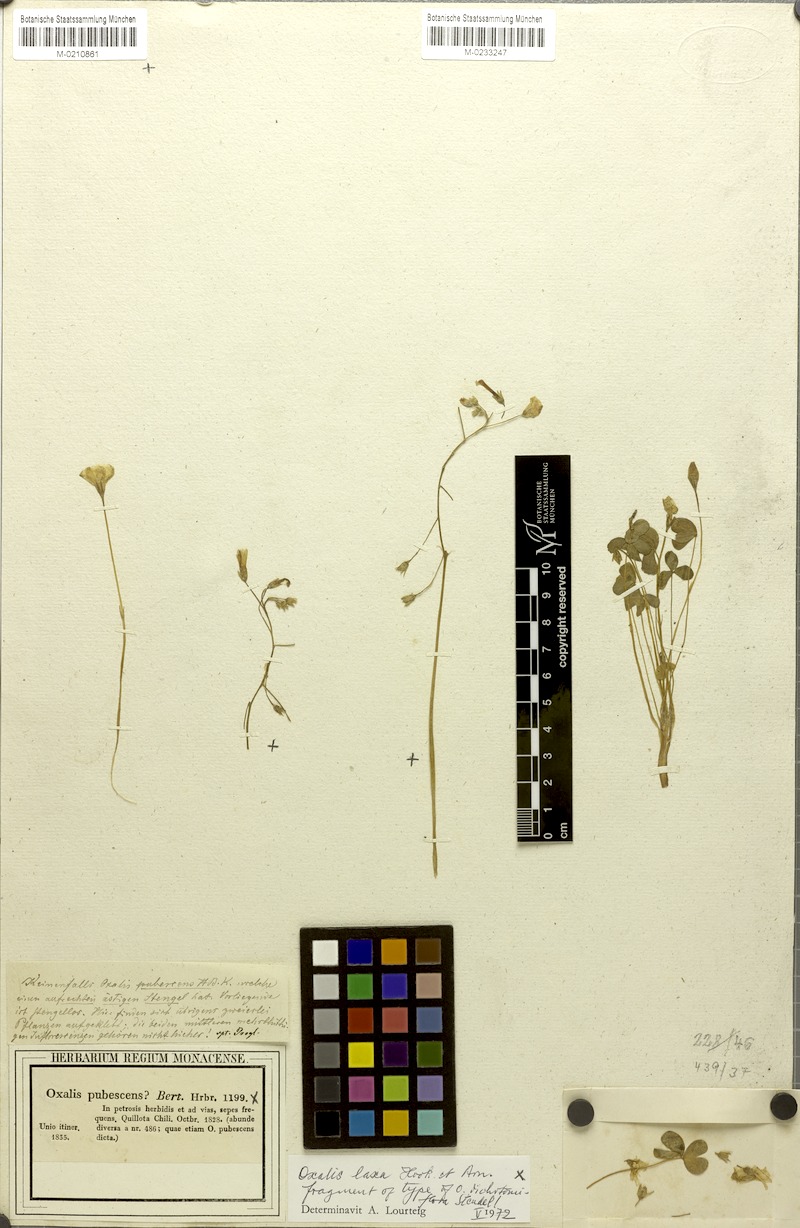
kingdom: Plantae
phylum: Tracheophyta
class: Magnoliopsida
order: Oxalidales
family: Oxalidaceae
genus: Oxalis
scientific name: Oxalis laxa
